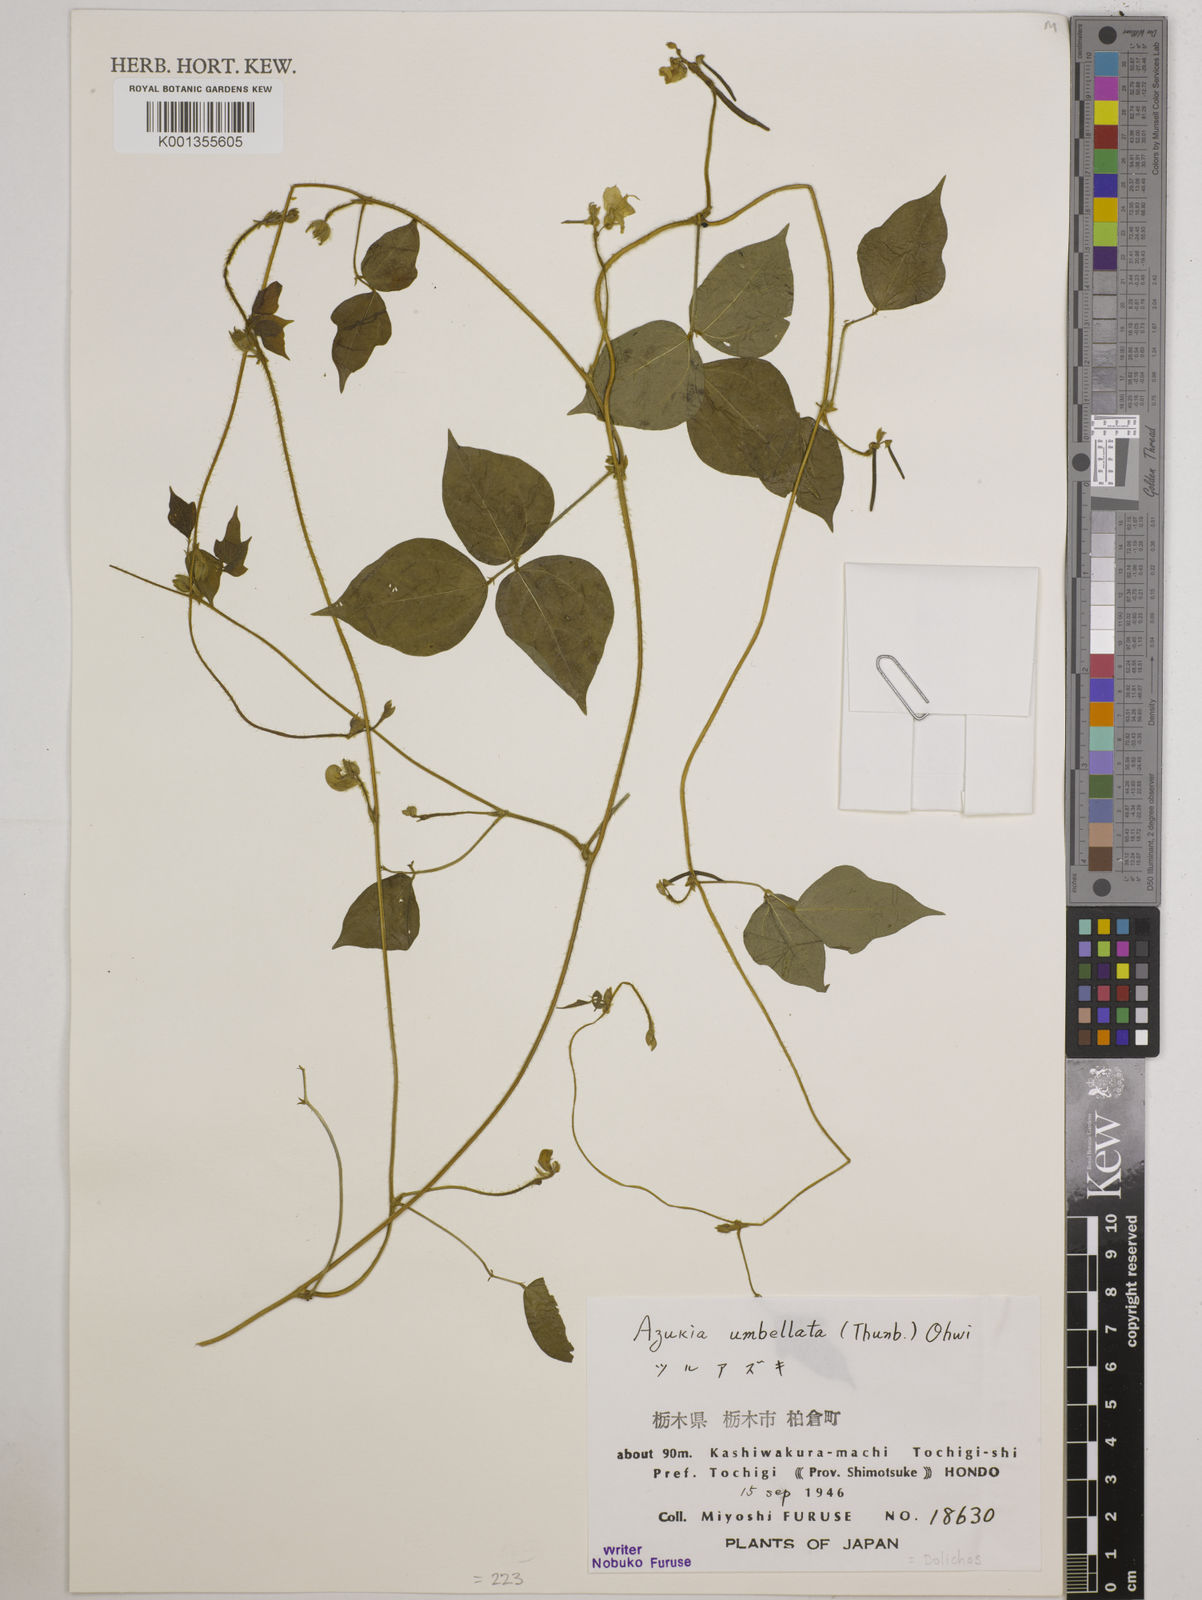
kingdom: Plantae
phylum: Tracheophyta
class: Magnoliopsida
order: Fabales
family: Fabaceae
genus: Vigna
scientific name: Vigna umbellata
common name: Oriental-bean
